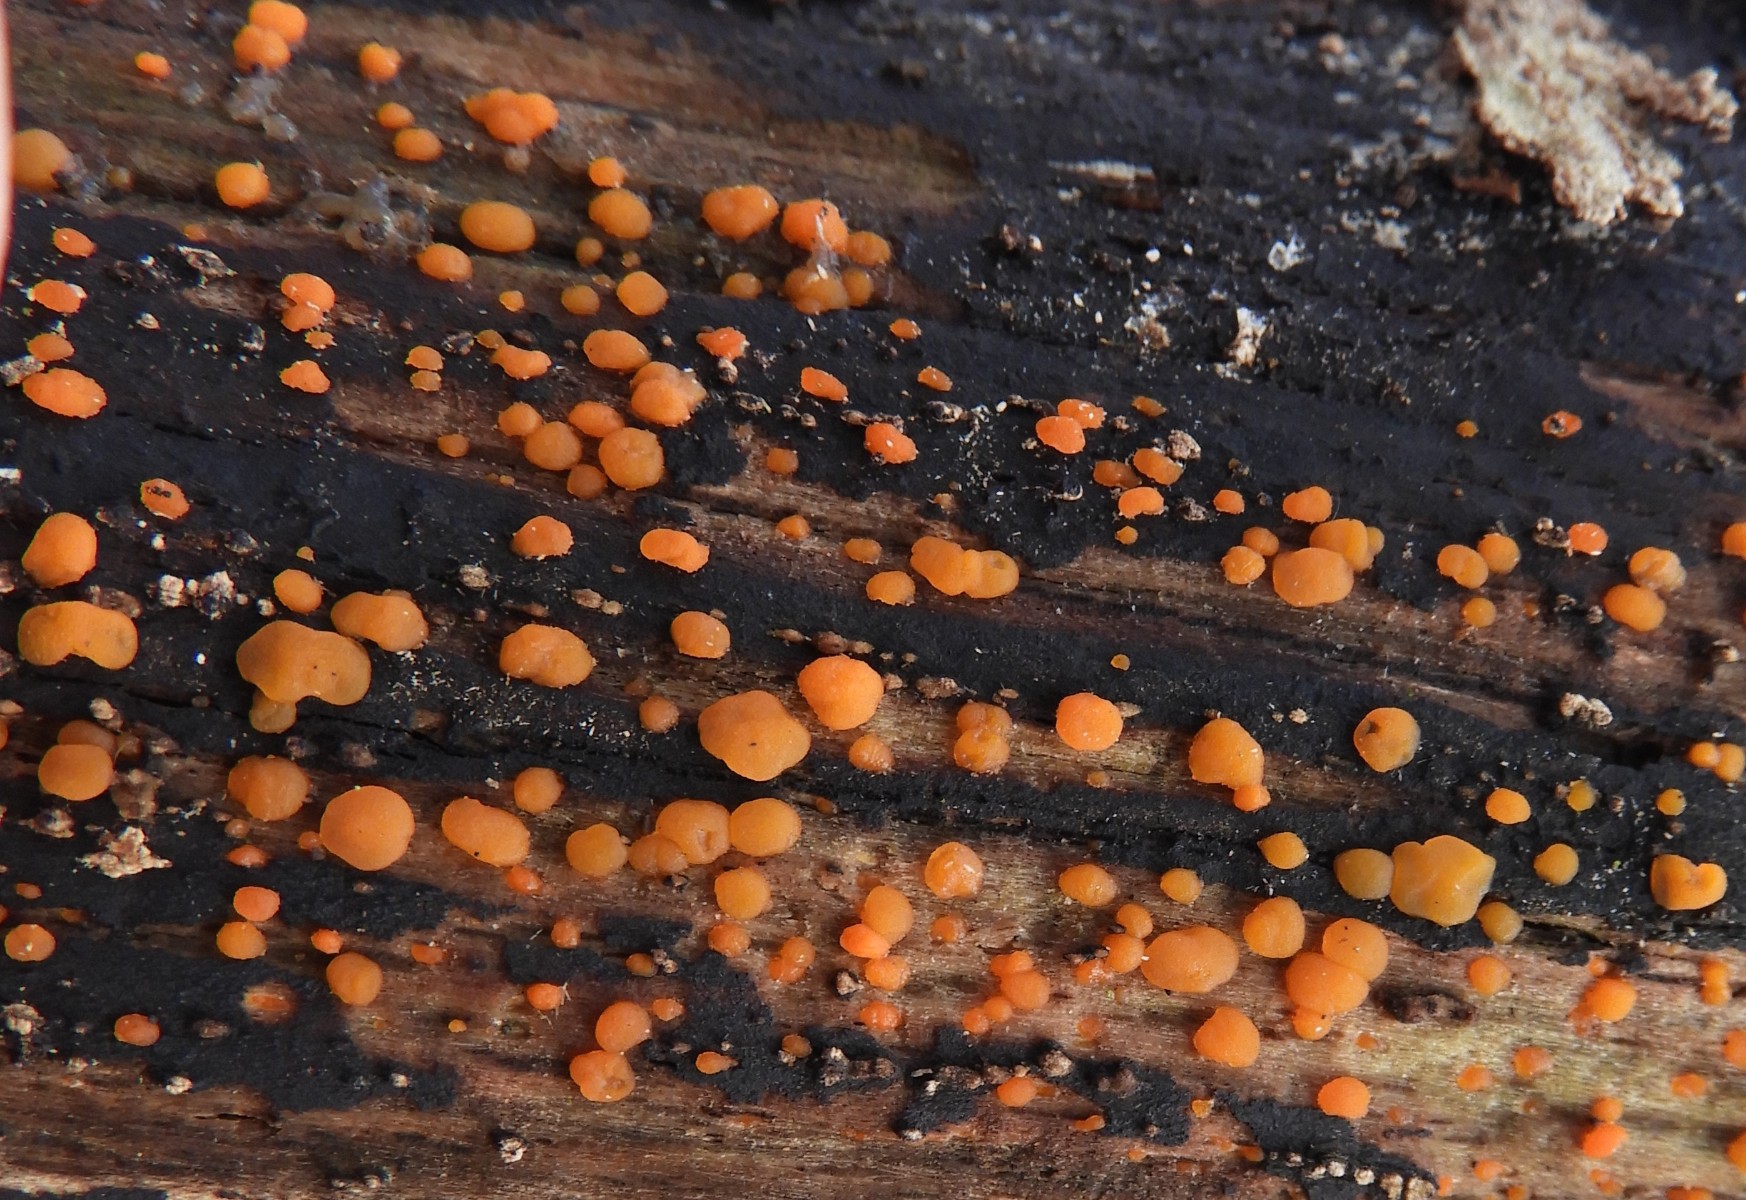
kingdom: Fungi
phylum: Basidiomycota
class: Dacrymycetes
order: Dacrymycetales
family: Dacrymycetaceae
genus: Dacrymyces
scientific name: Dacrymyces stillatus
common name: almindelig tåresvamp
